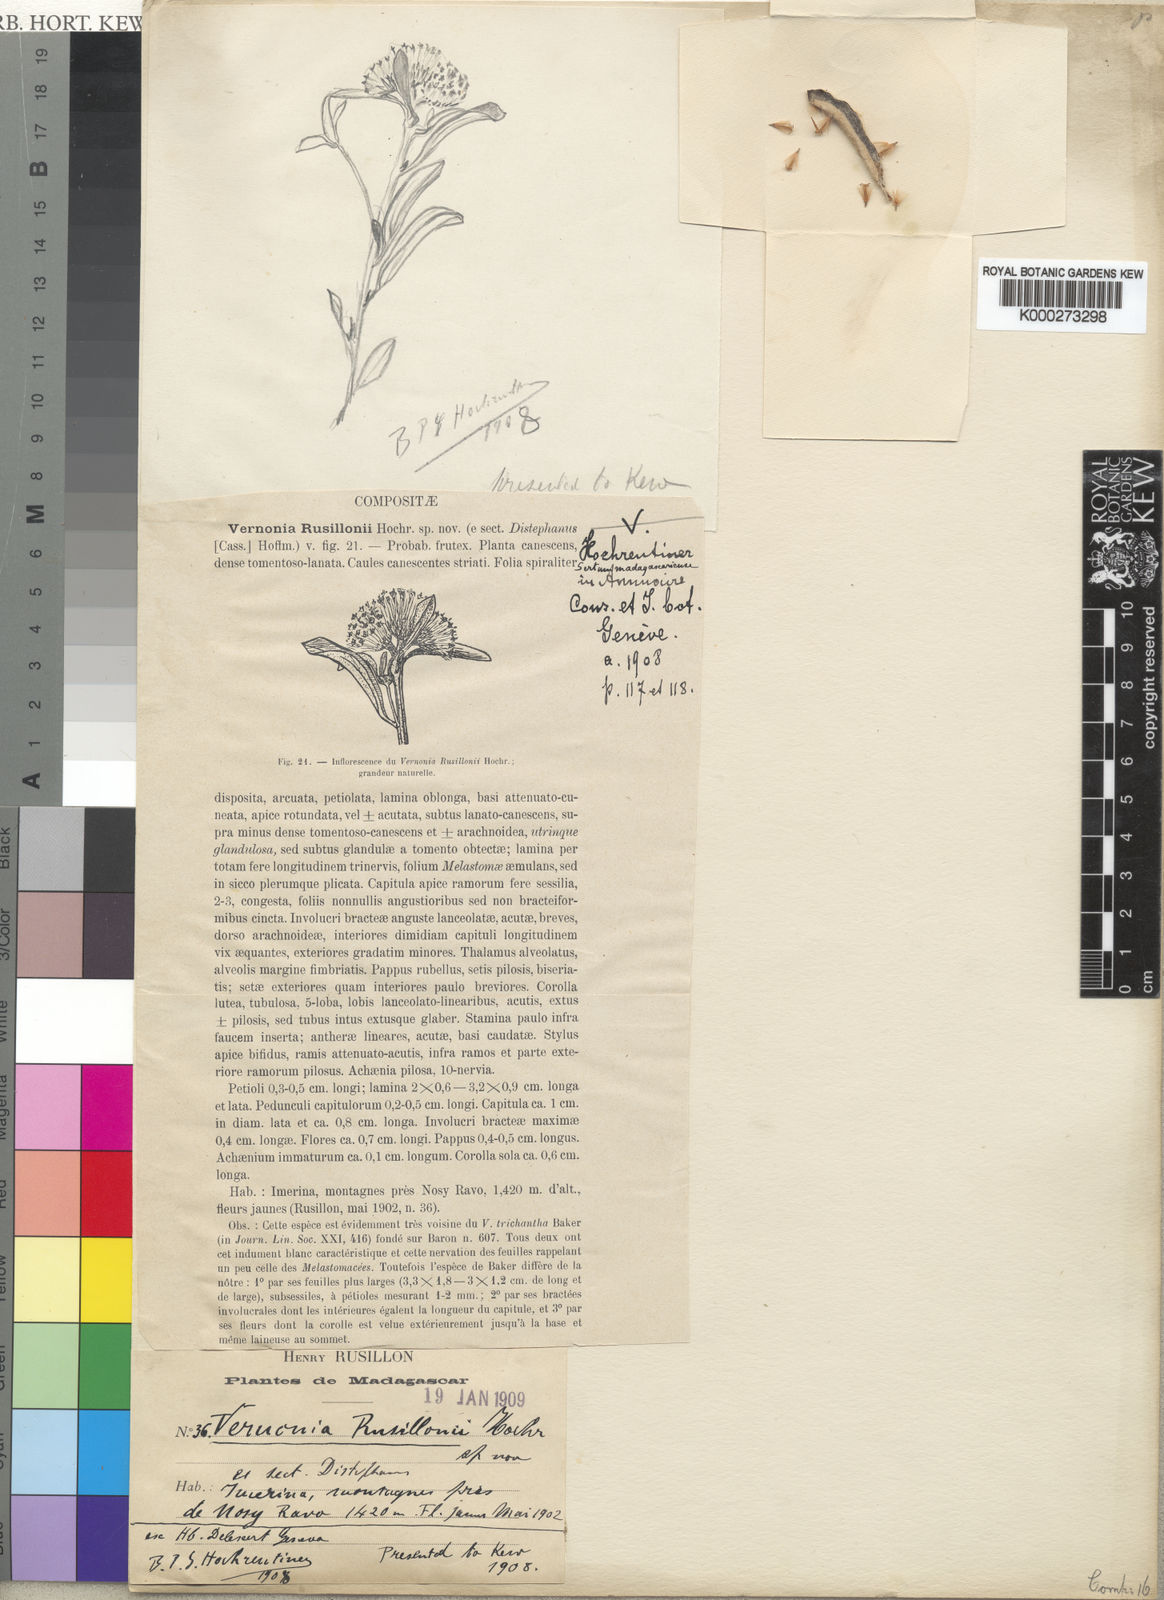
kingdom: Plantae
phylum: Tracheophyta
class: Magnoliopsida
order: Asterales
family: Asteraceae
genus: Distephanus
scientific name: Distephanus trinervis
